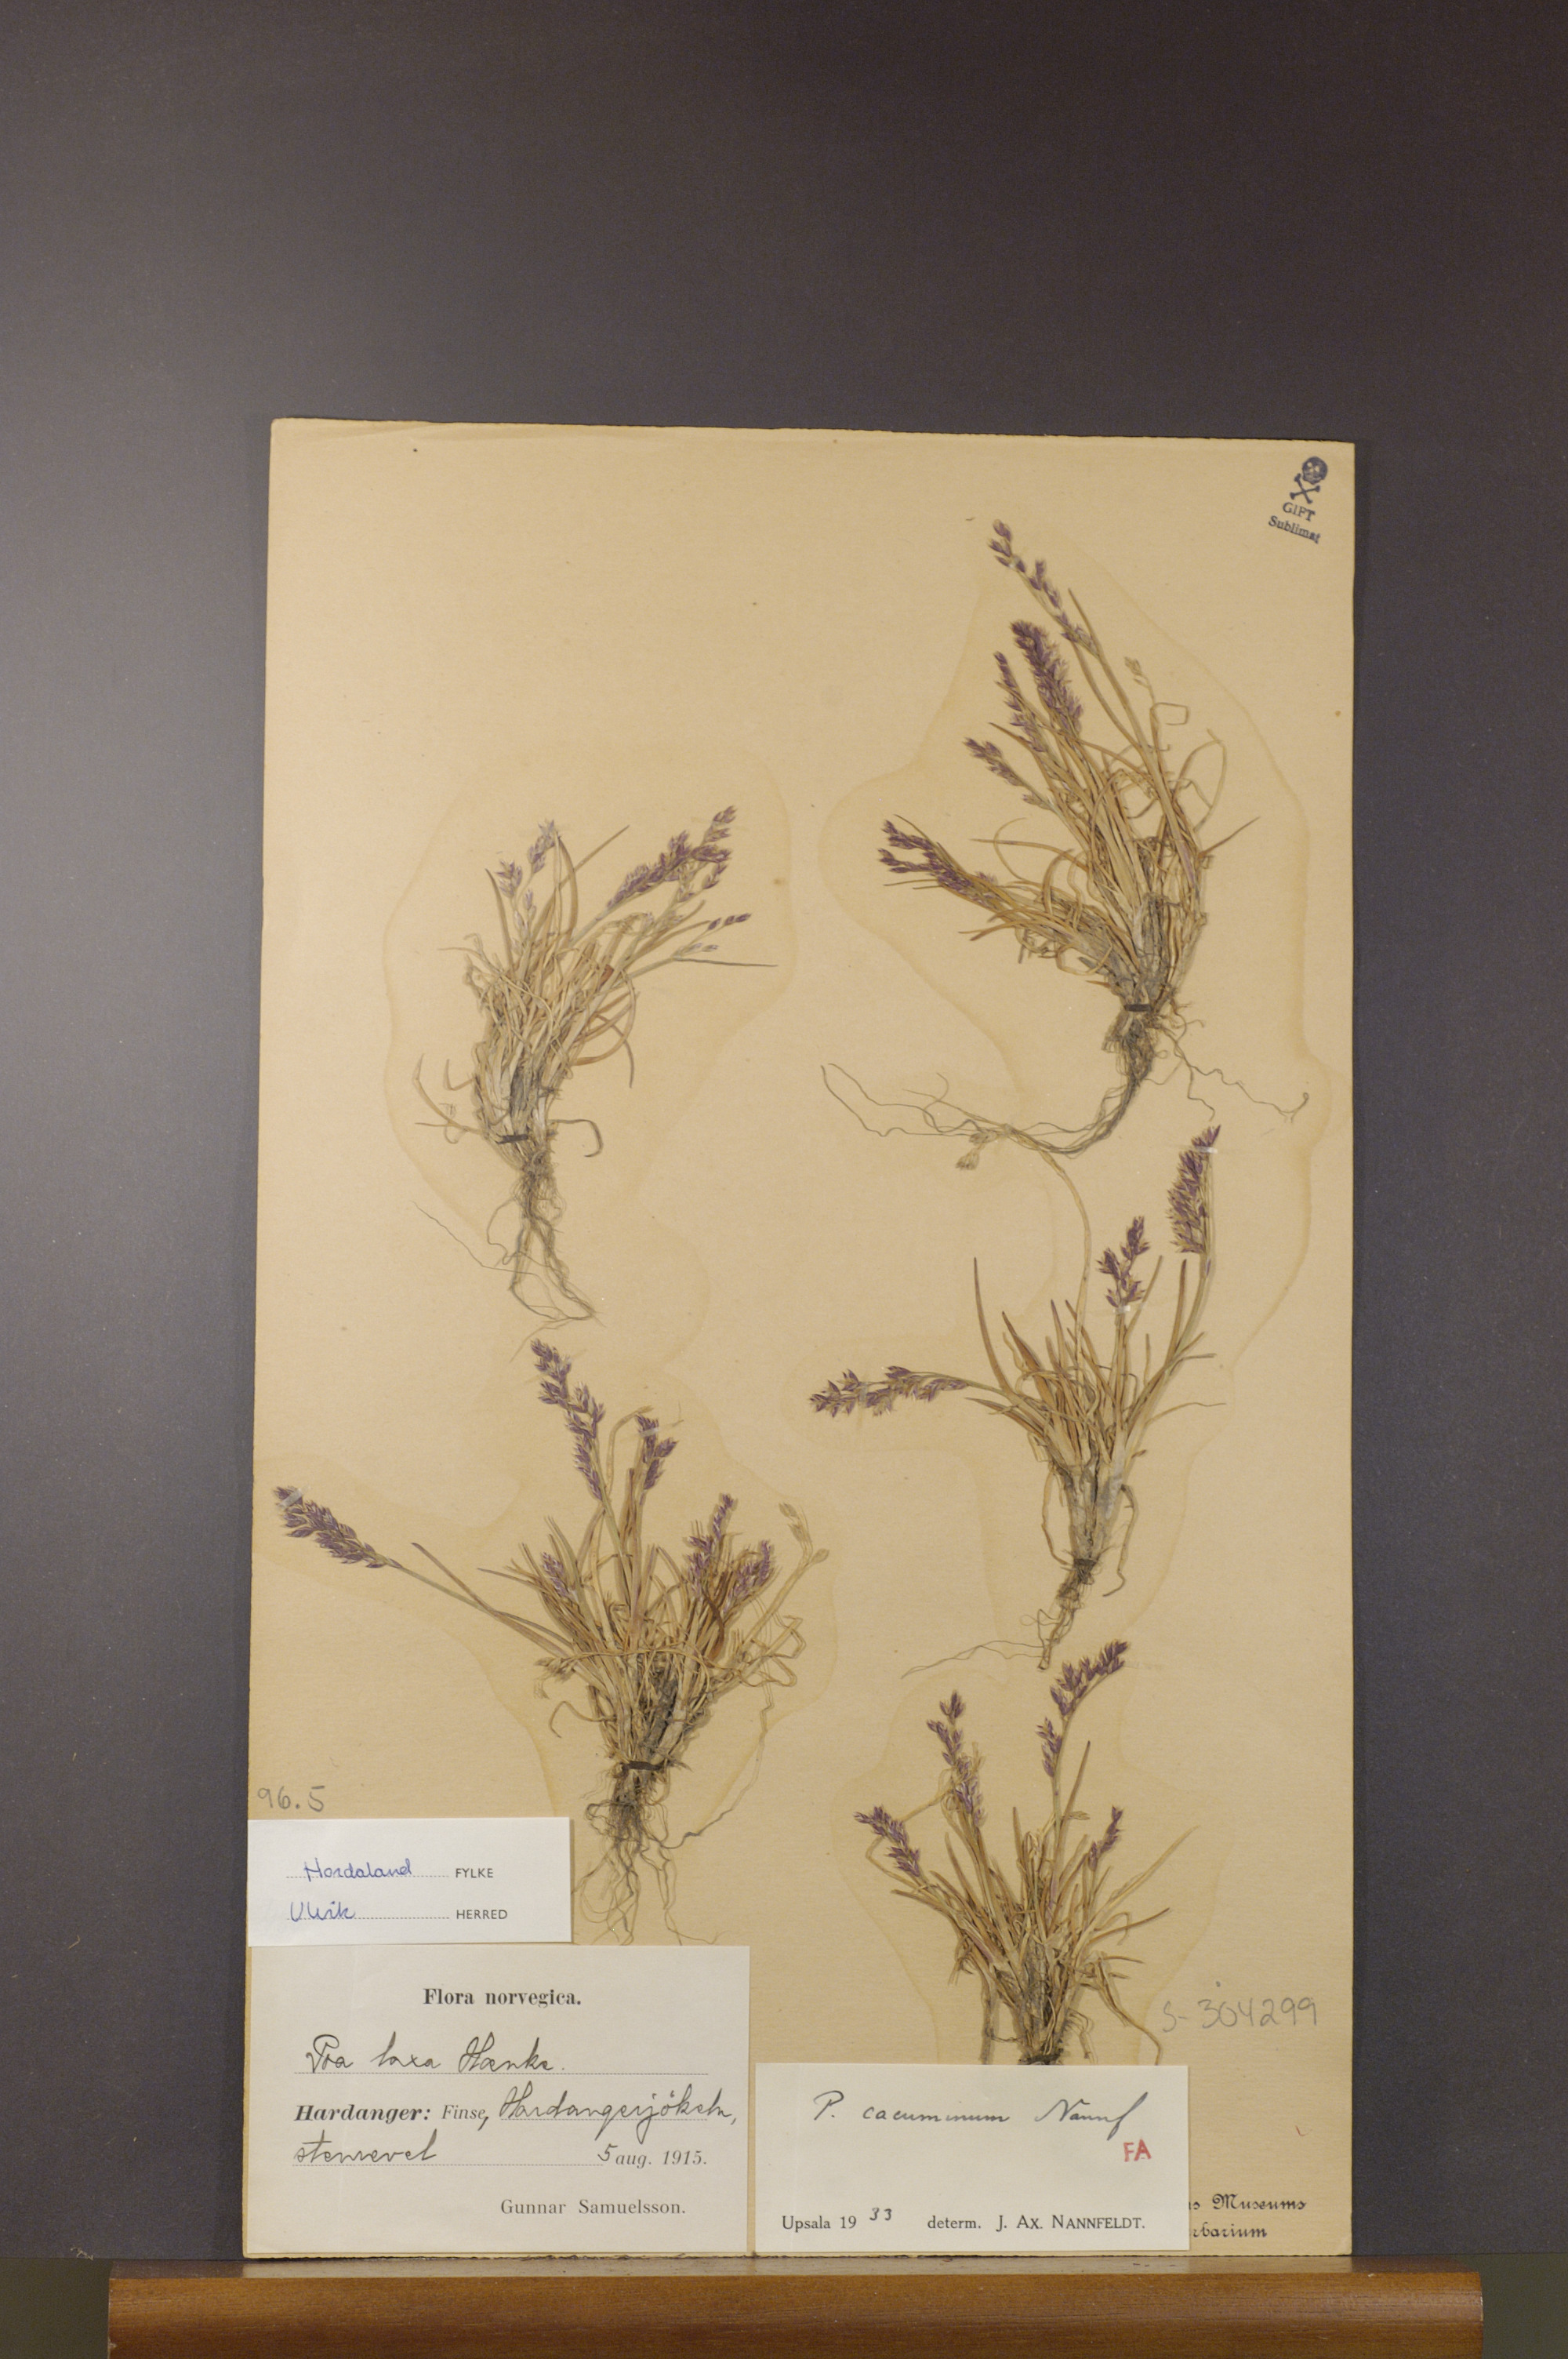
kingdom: Plantae
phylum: Tracheophyta
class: Liliopsida
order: Poales
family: Poaceae
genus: Poa
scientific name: Poa flexuosa
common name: Wavy meadow-grass
